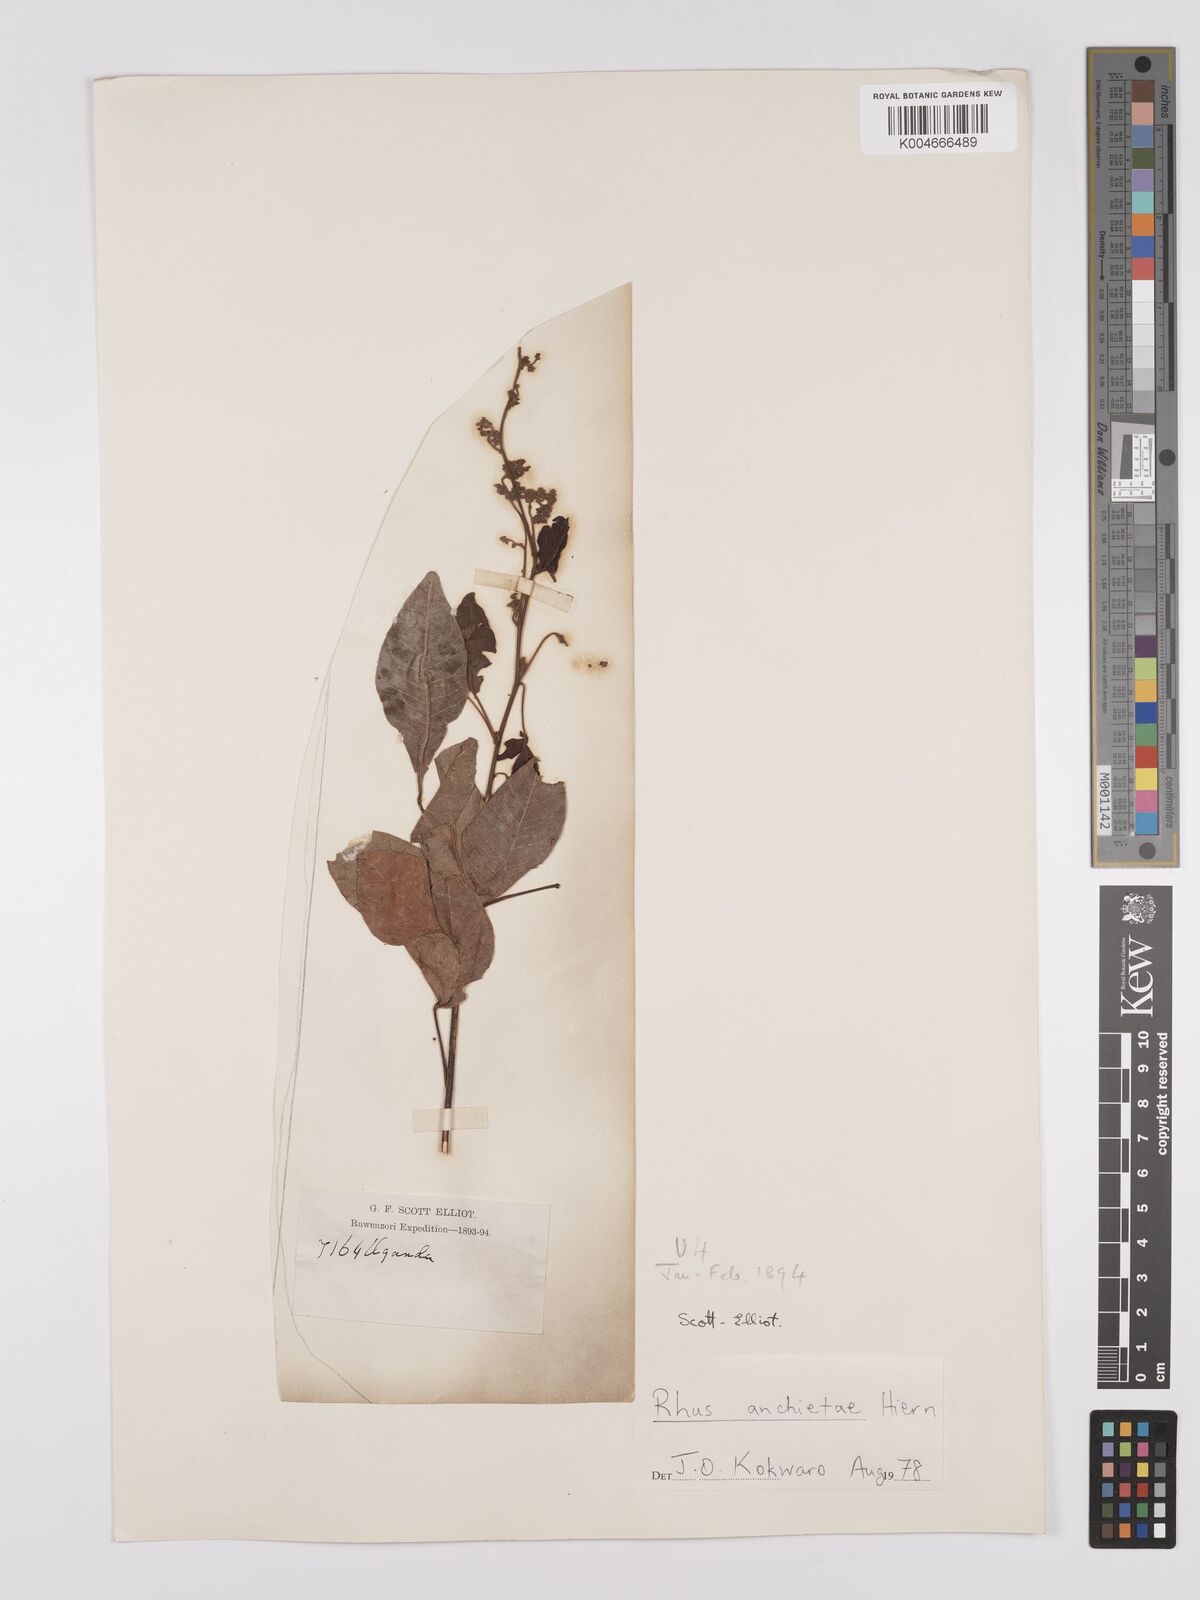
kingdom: Plantae
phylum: Tracheophyta
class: Magnoliopsida
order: Sapindales
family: Anacardiaceae
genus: Searsia
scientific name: Searsia anchietae
